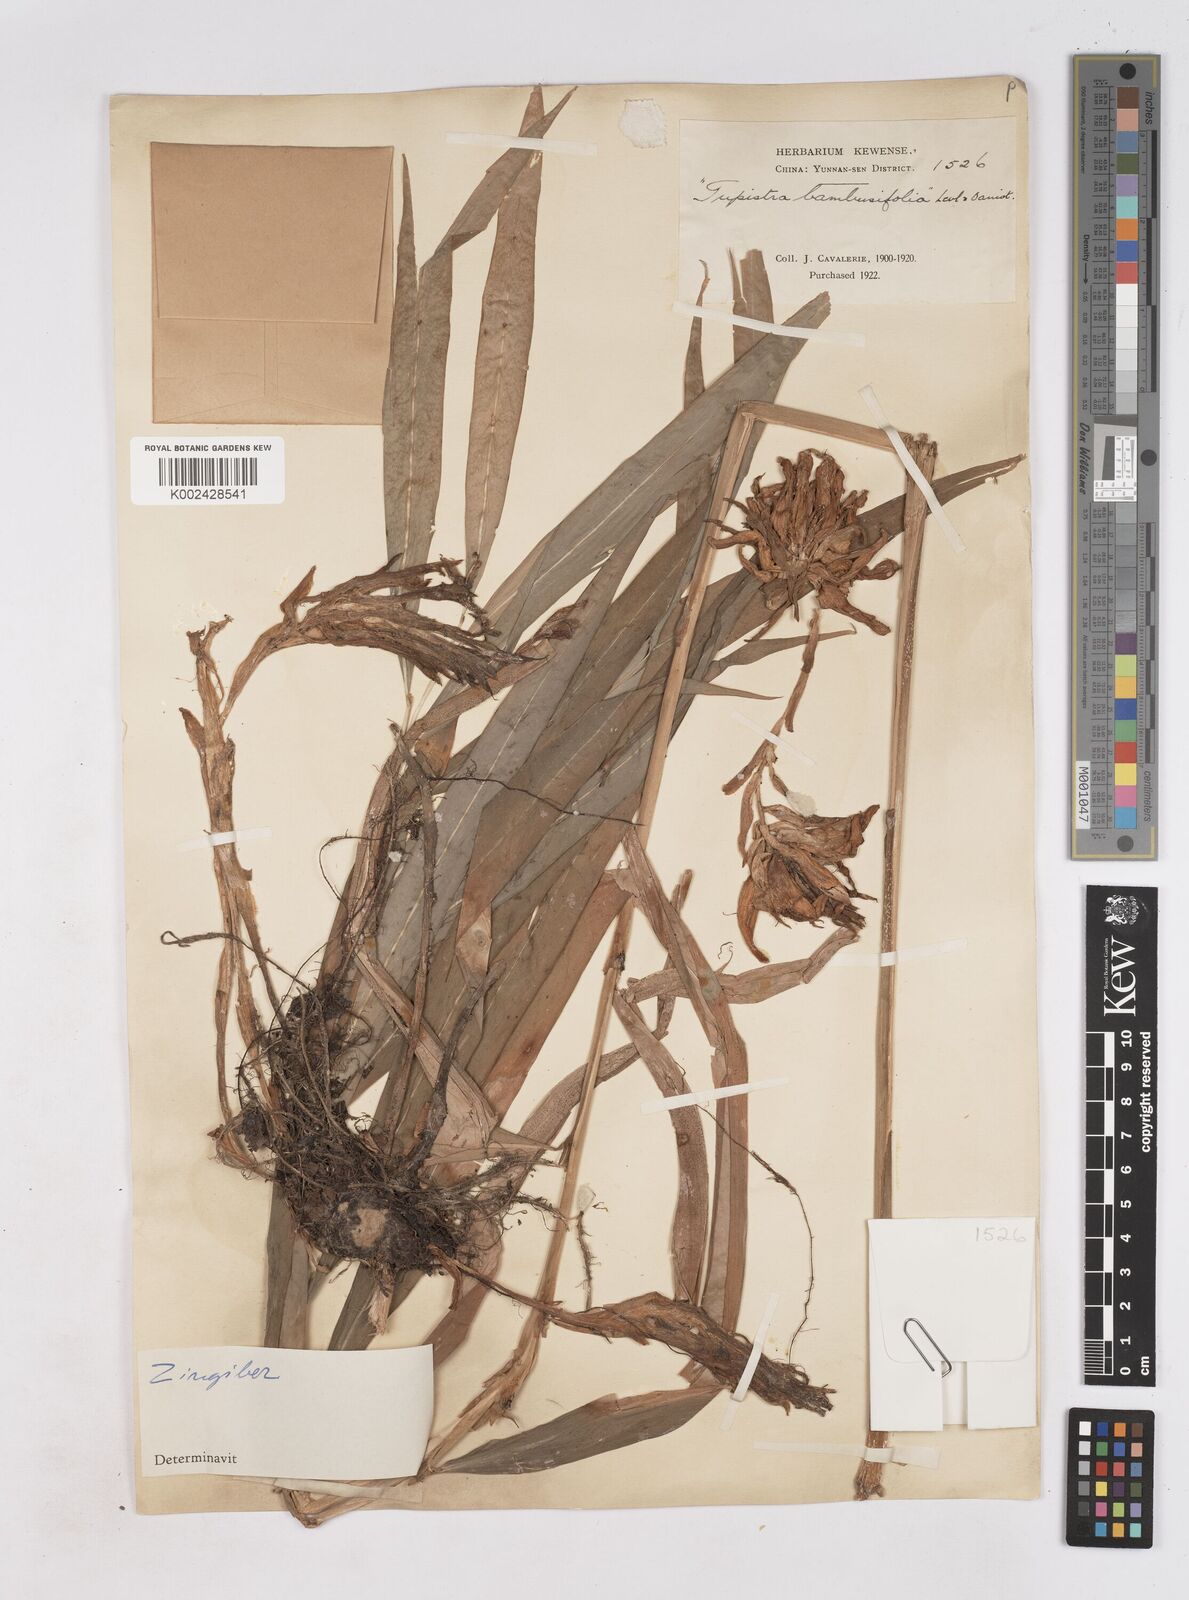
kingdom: Plantae
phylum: Tracheophyta
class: Liliopsida
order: Zingiberales
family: Zingiberaceae
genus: Zingiber
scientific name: Zingiber pleiostachyum
